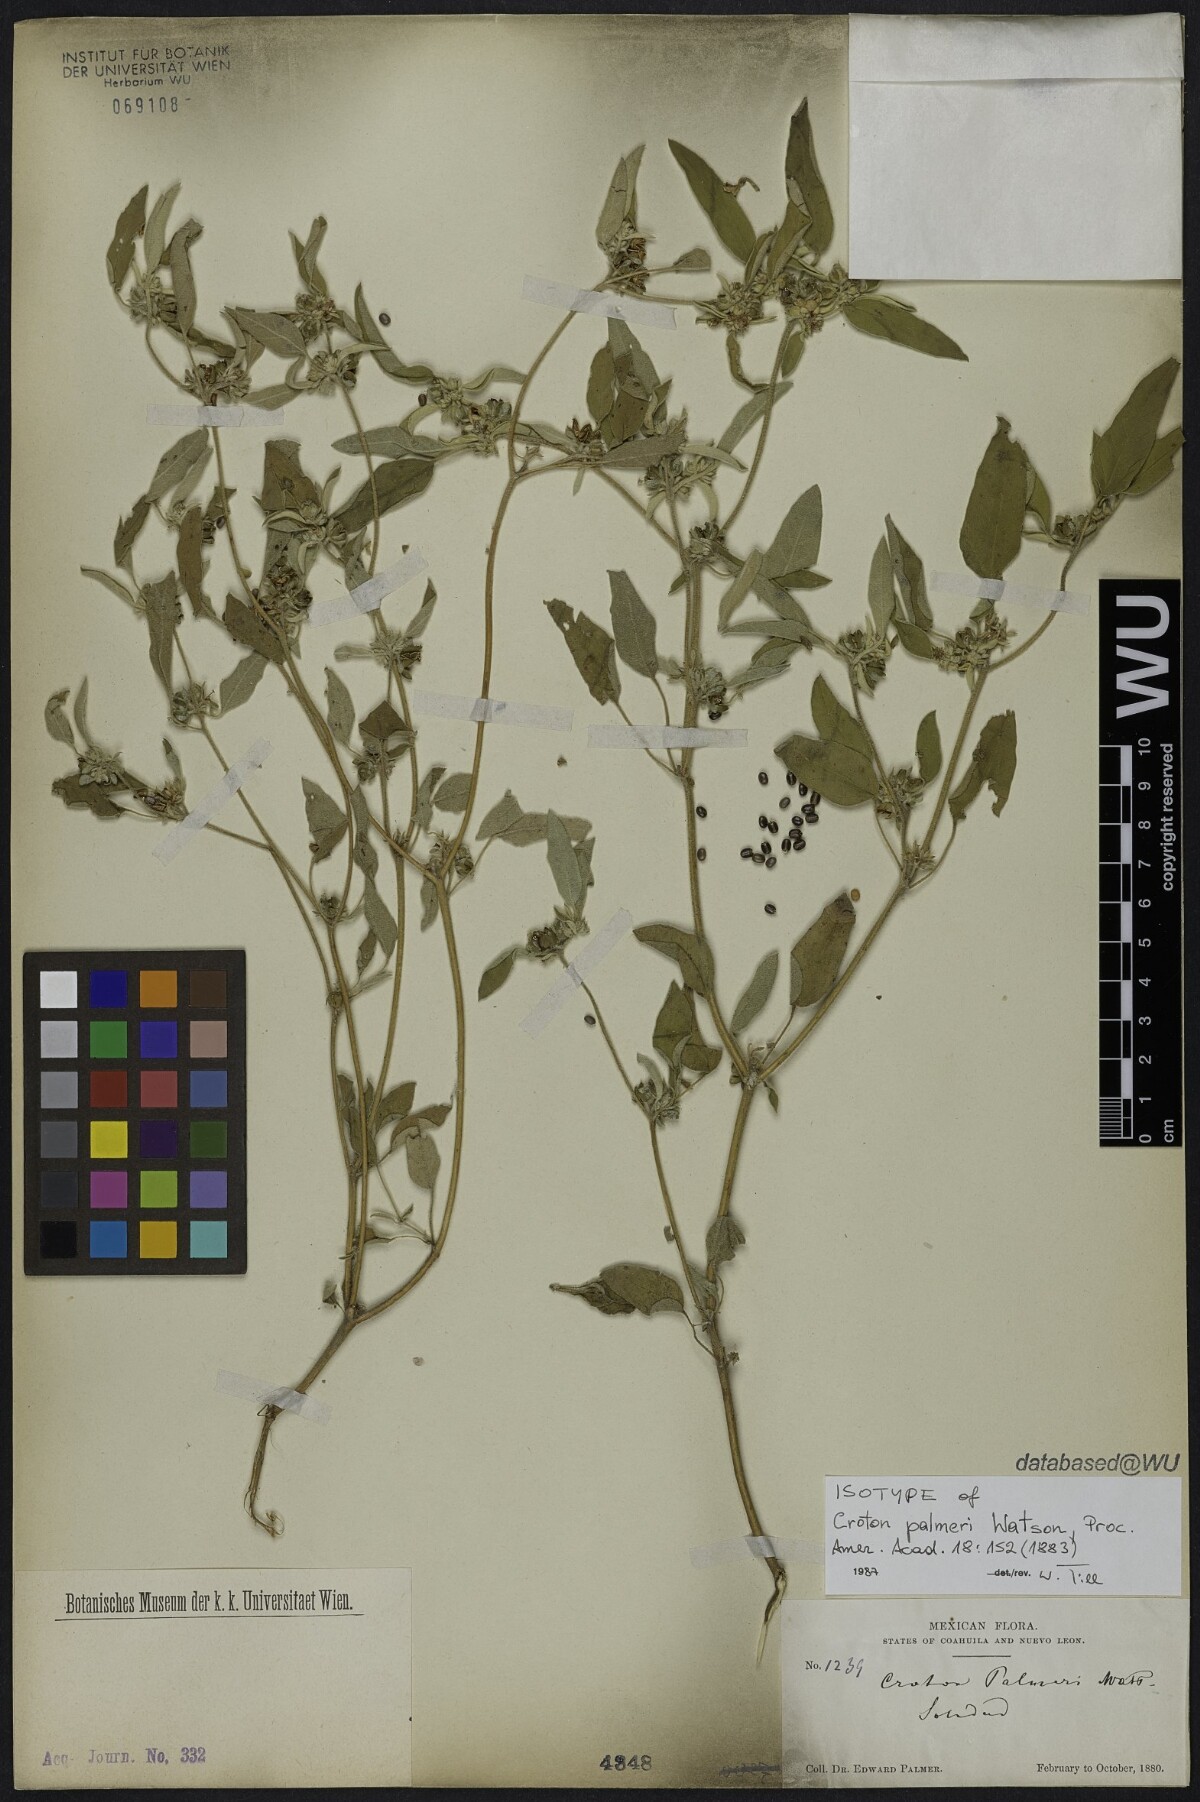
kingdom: Plantae
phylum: Tracheophyta
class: Magnoliopsida
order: Malpighiales
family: Euphorbiaceae
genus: Croton
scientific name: Croton palmeri
